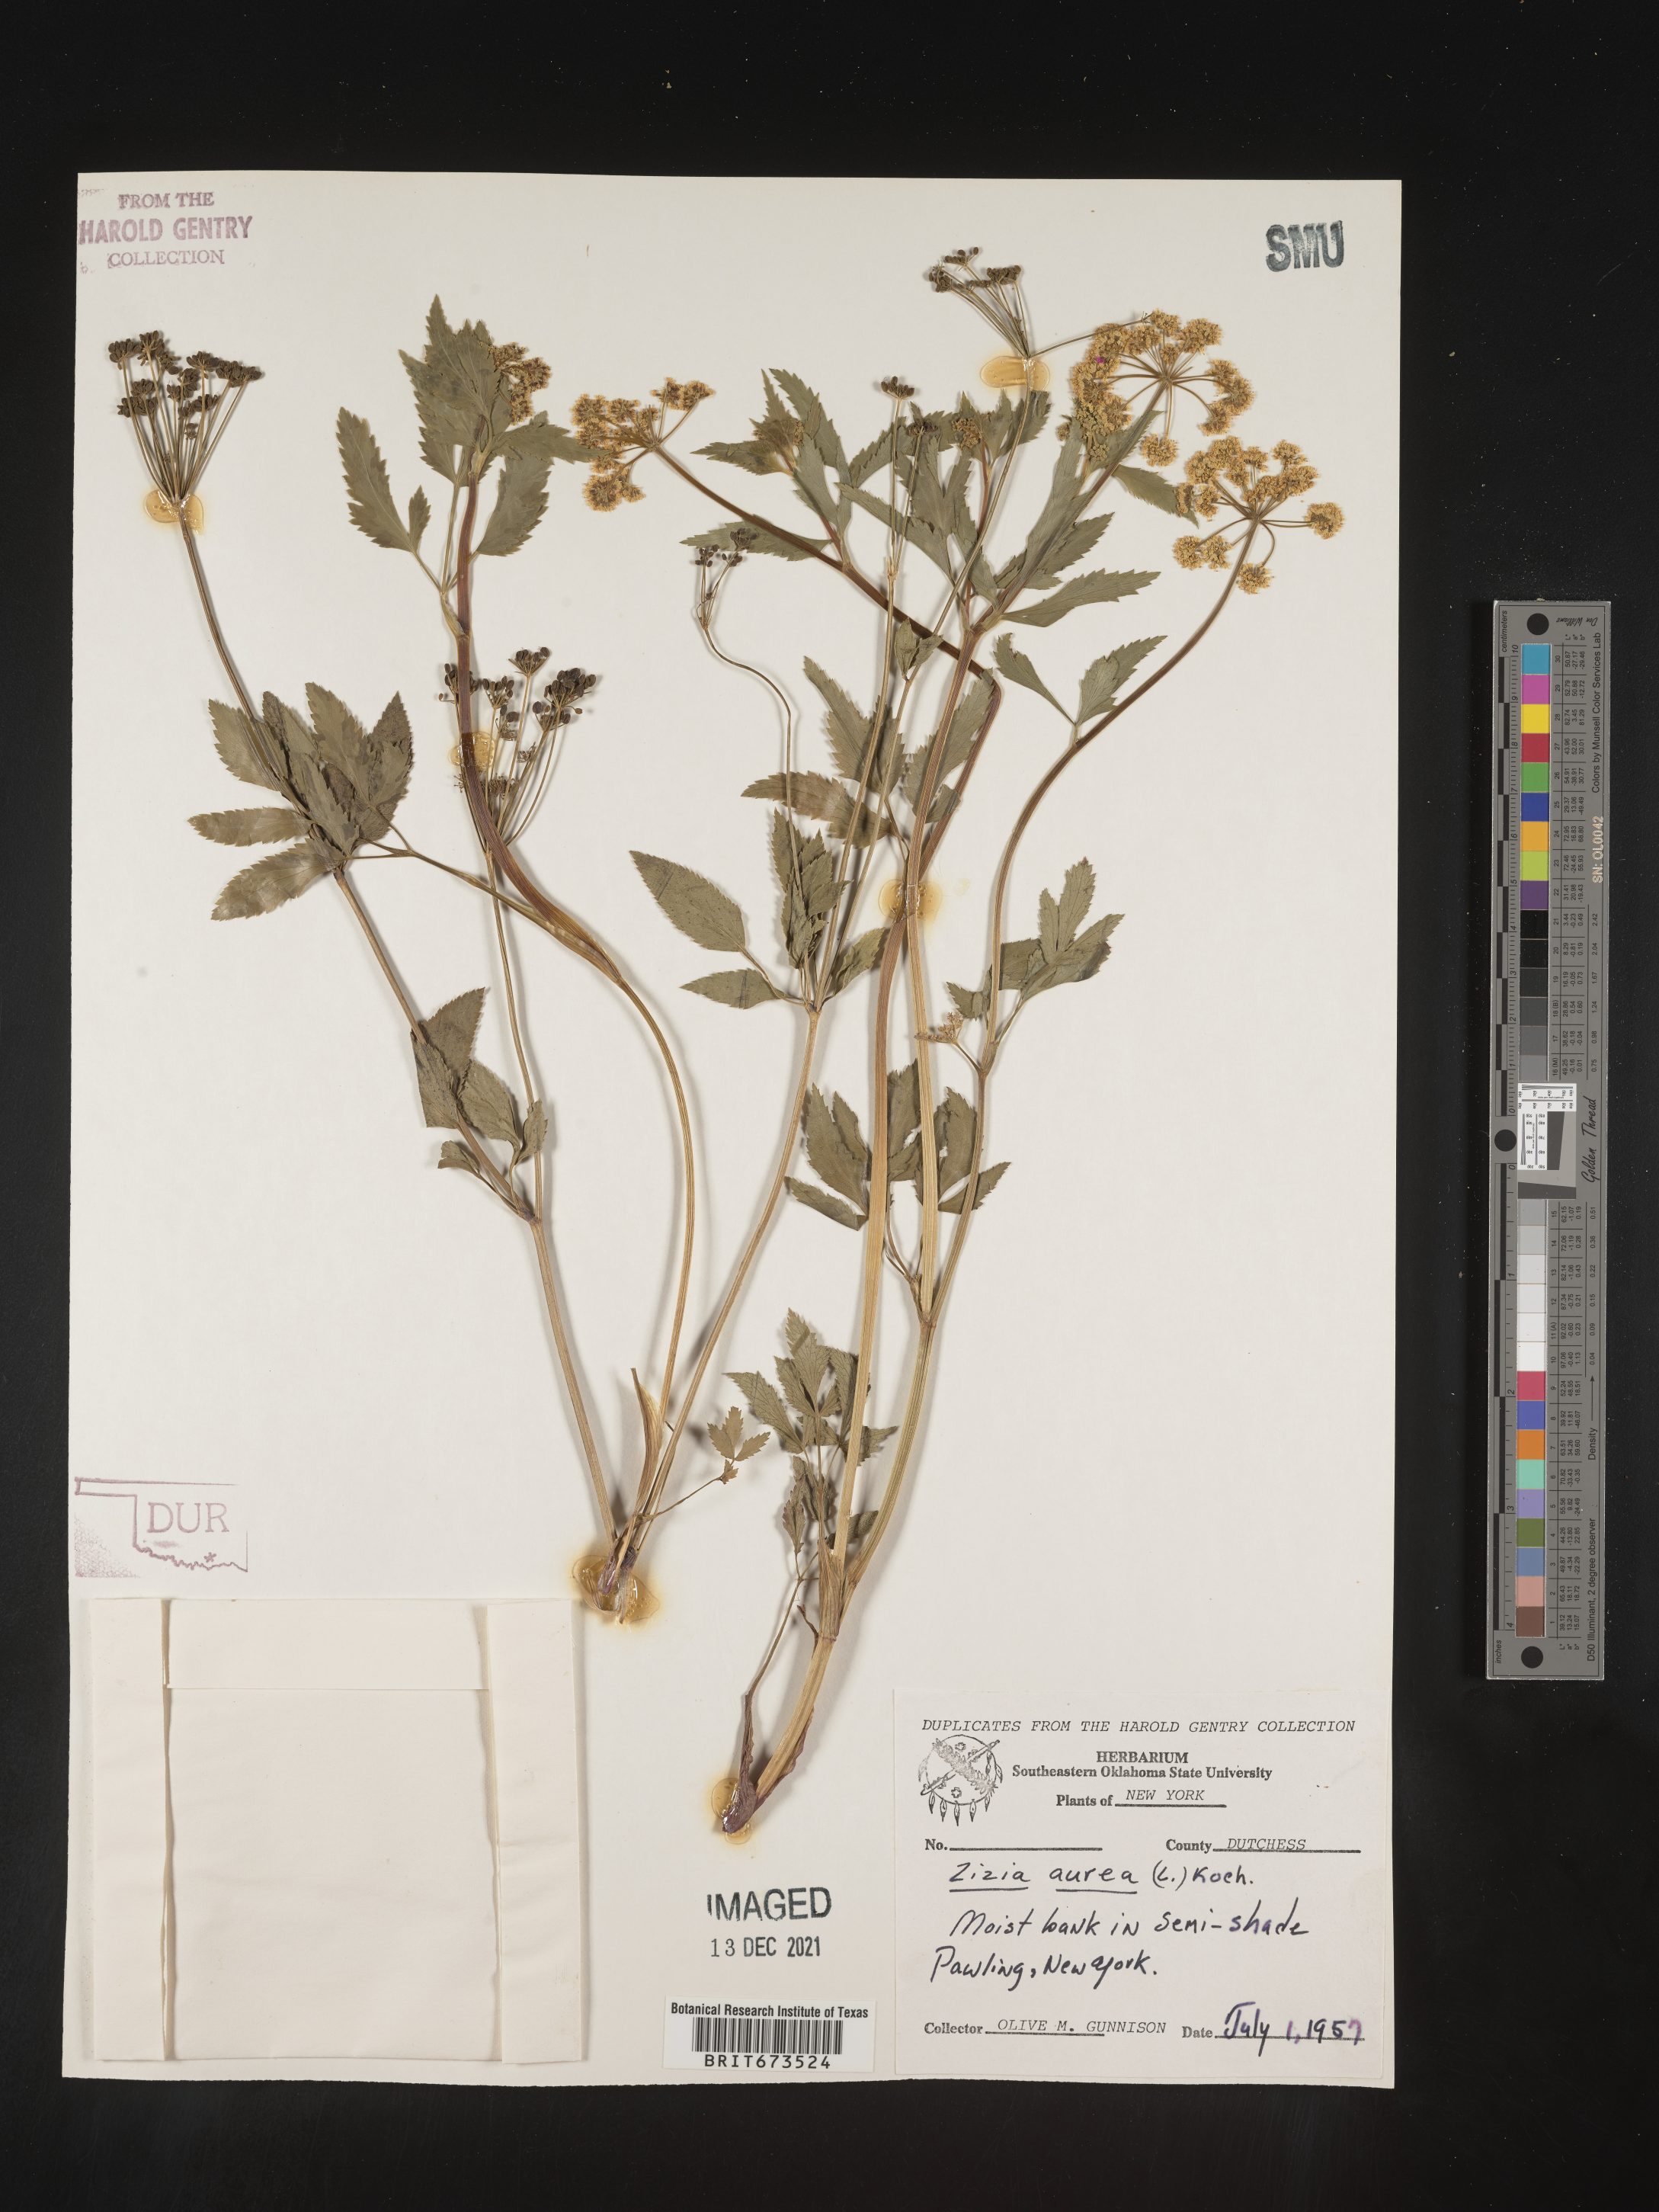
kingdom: Plantae
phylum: Tracheophyta
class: Magnoliopsida
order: Apiales
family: Apiaceae
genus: Zizia
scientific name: Zizia aurea
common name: Golden alexanders
